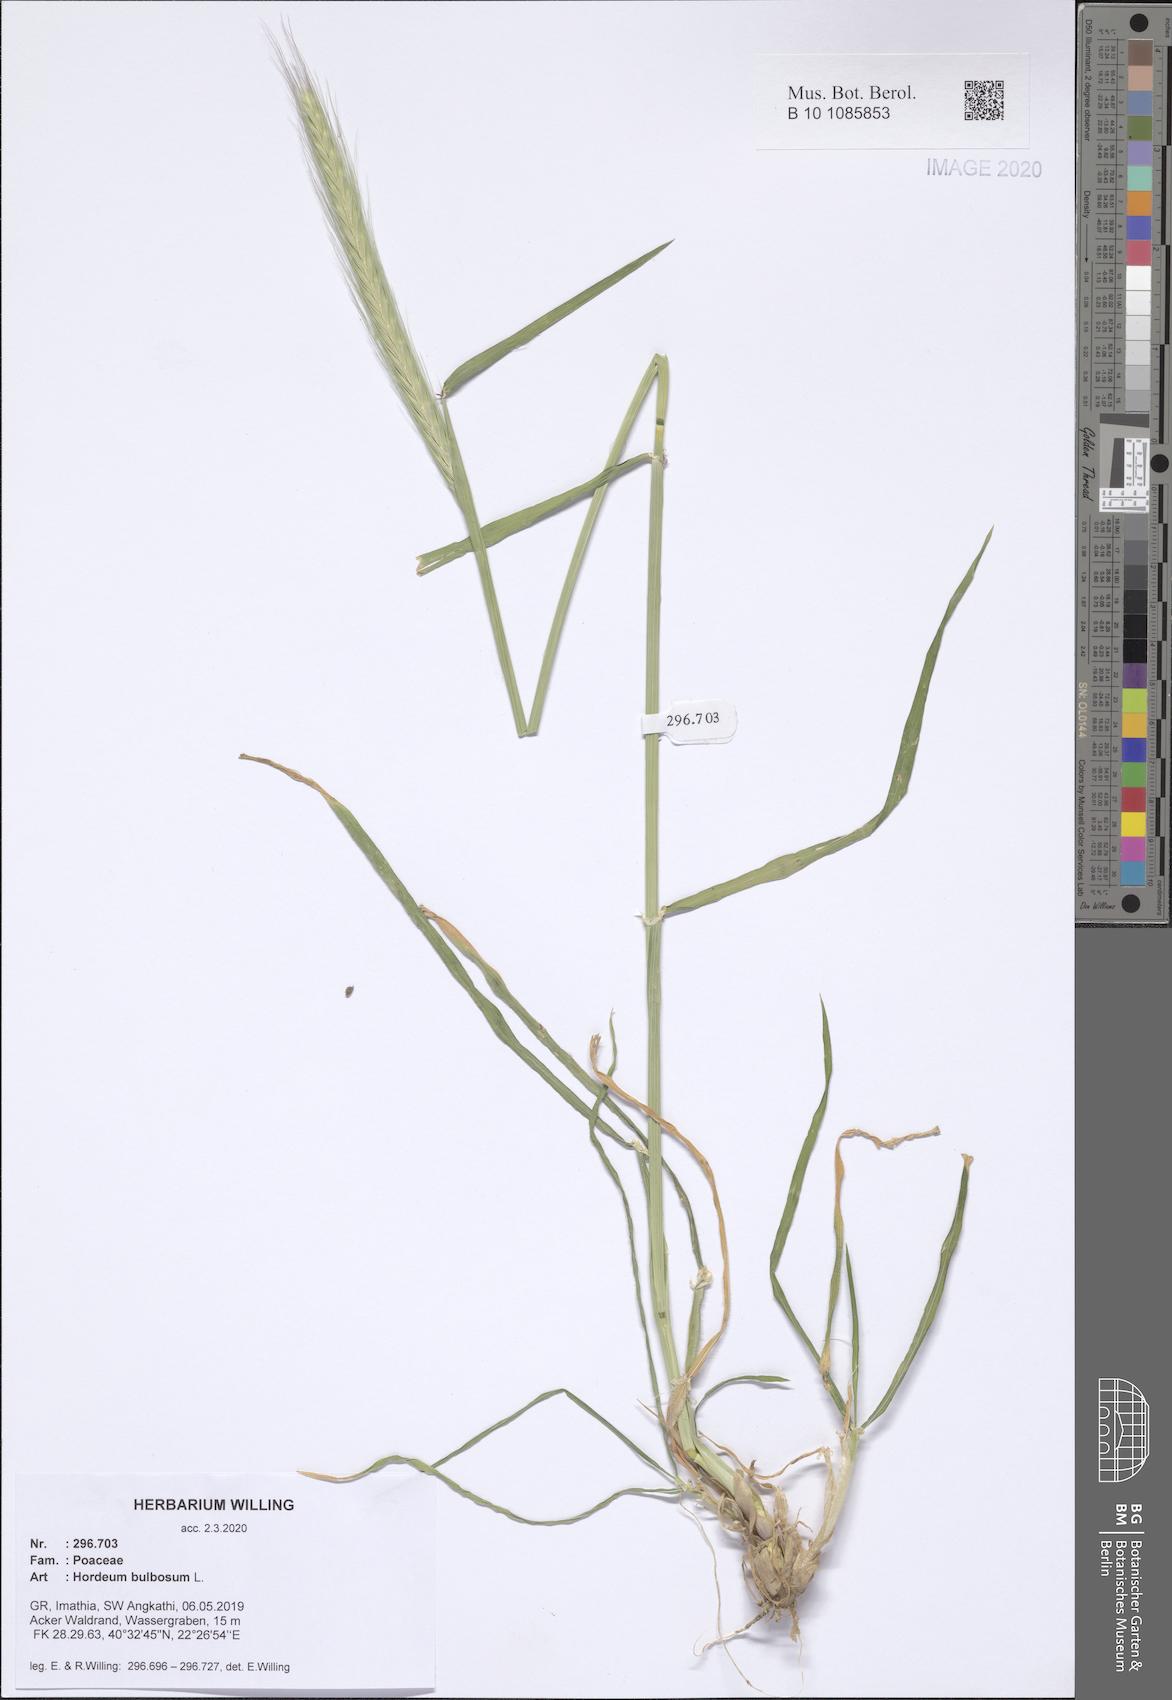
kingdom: Plantae
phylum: Tracheophyta
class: Liliopsida
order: Poales
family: Poaceae
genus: Hordeum
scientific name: Hordeum bulbosum
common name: Bulbous barley
